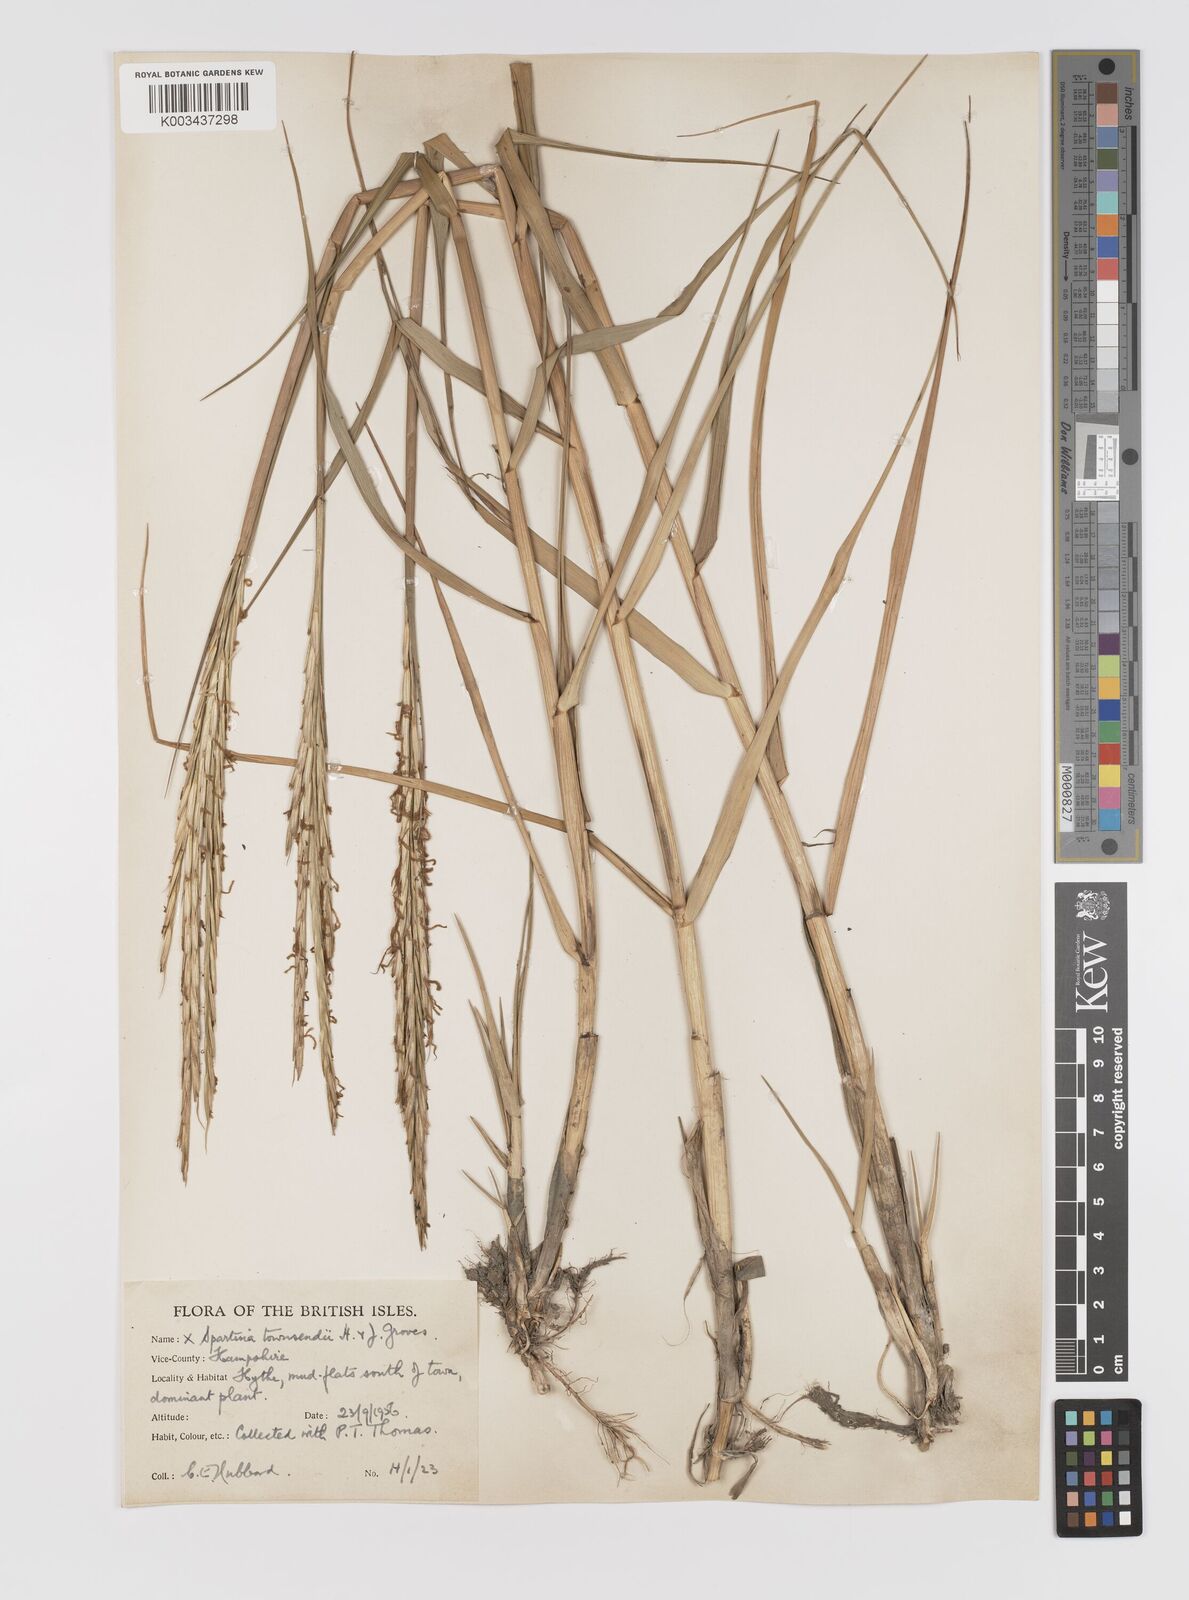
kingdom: Plantae
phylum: Tracheophyta
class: Liliopsida
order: Poales
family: Poaceae
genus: Sporobolus
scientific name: Sporobolus townsendii
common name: Townsend's cordgrass
